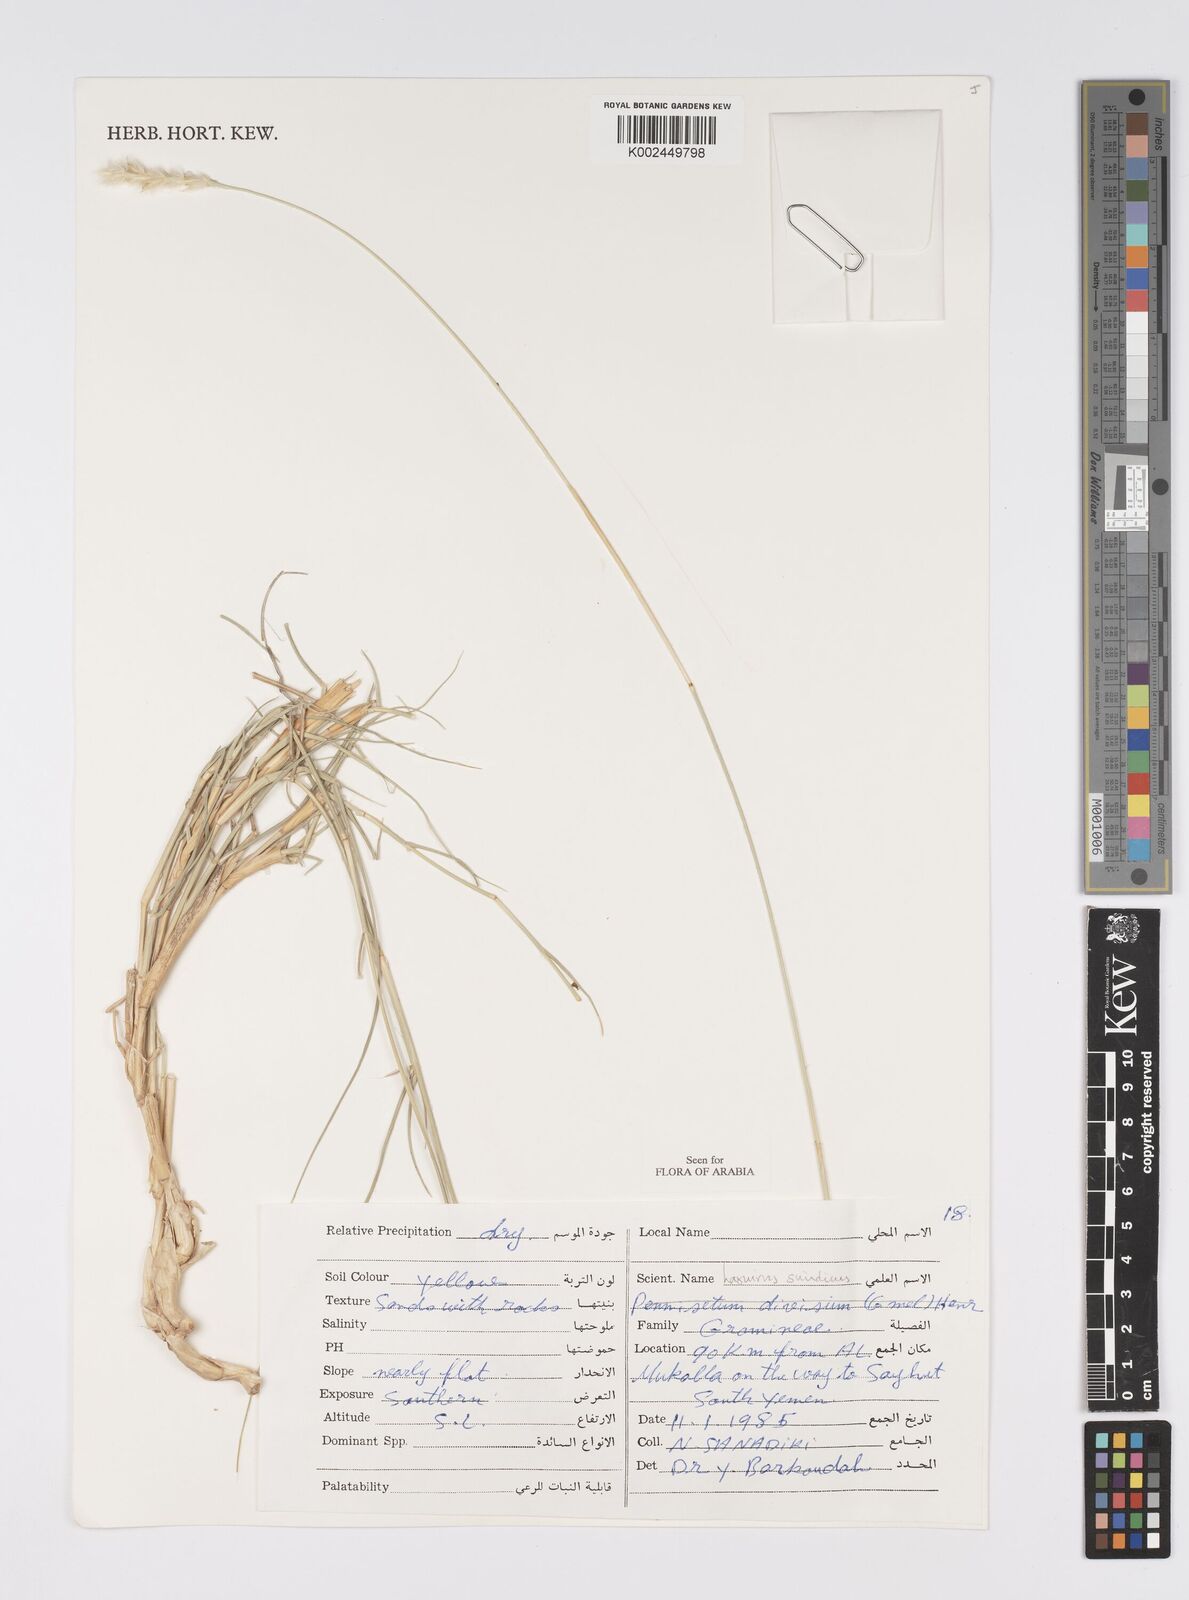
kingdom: Plantae
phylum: Tracheophyta
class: Liliopsida
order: Poales
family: Poaceae
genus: Lasiurus
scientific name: Lasiurus scindicus
